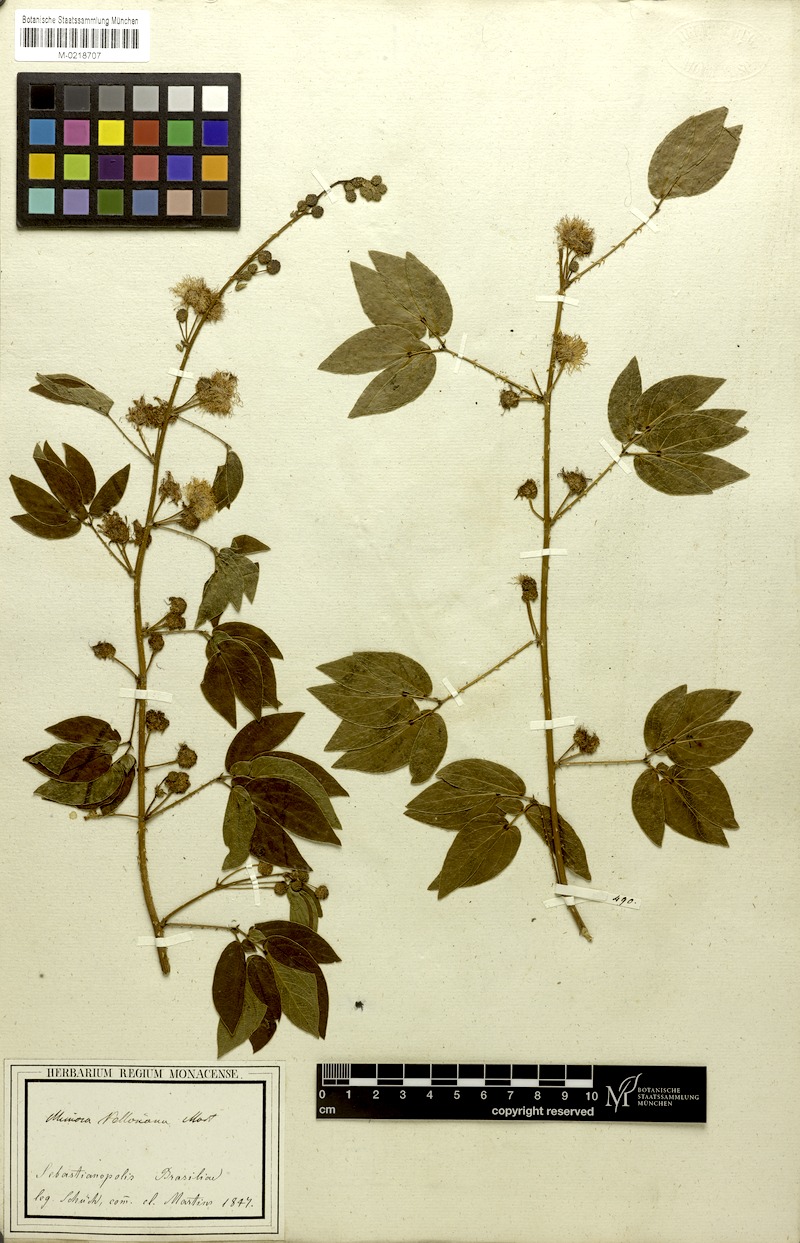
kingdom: Plantae
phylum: Tracheophyta
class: Magnoliopsida
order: Fabales
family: Fabaceae
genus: Mimosa
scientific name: Mimosa velloziana
